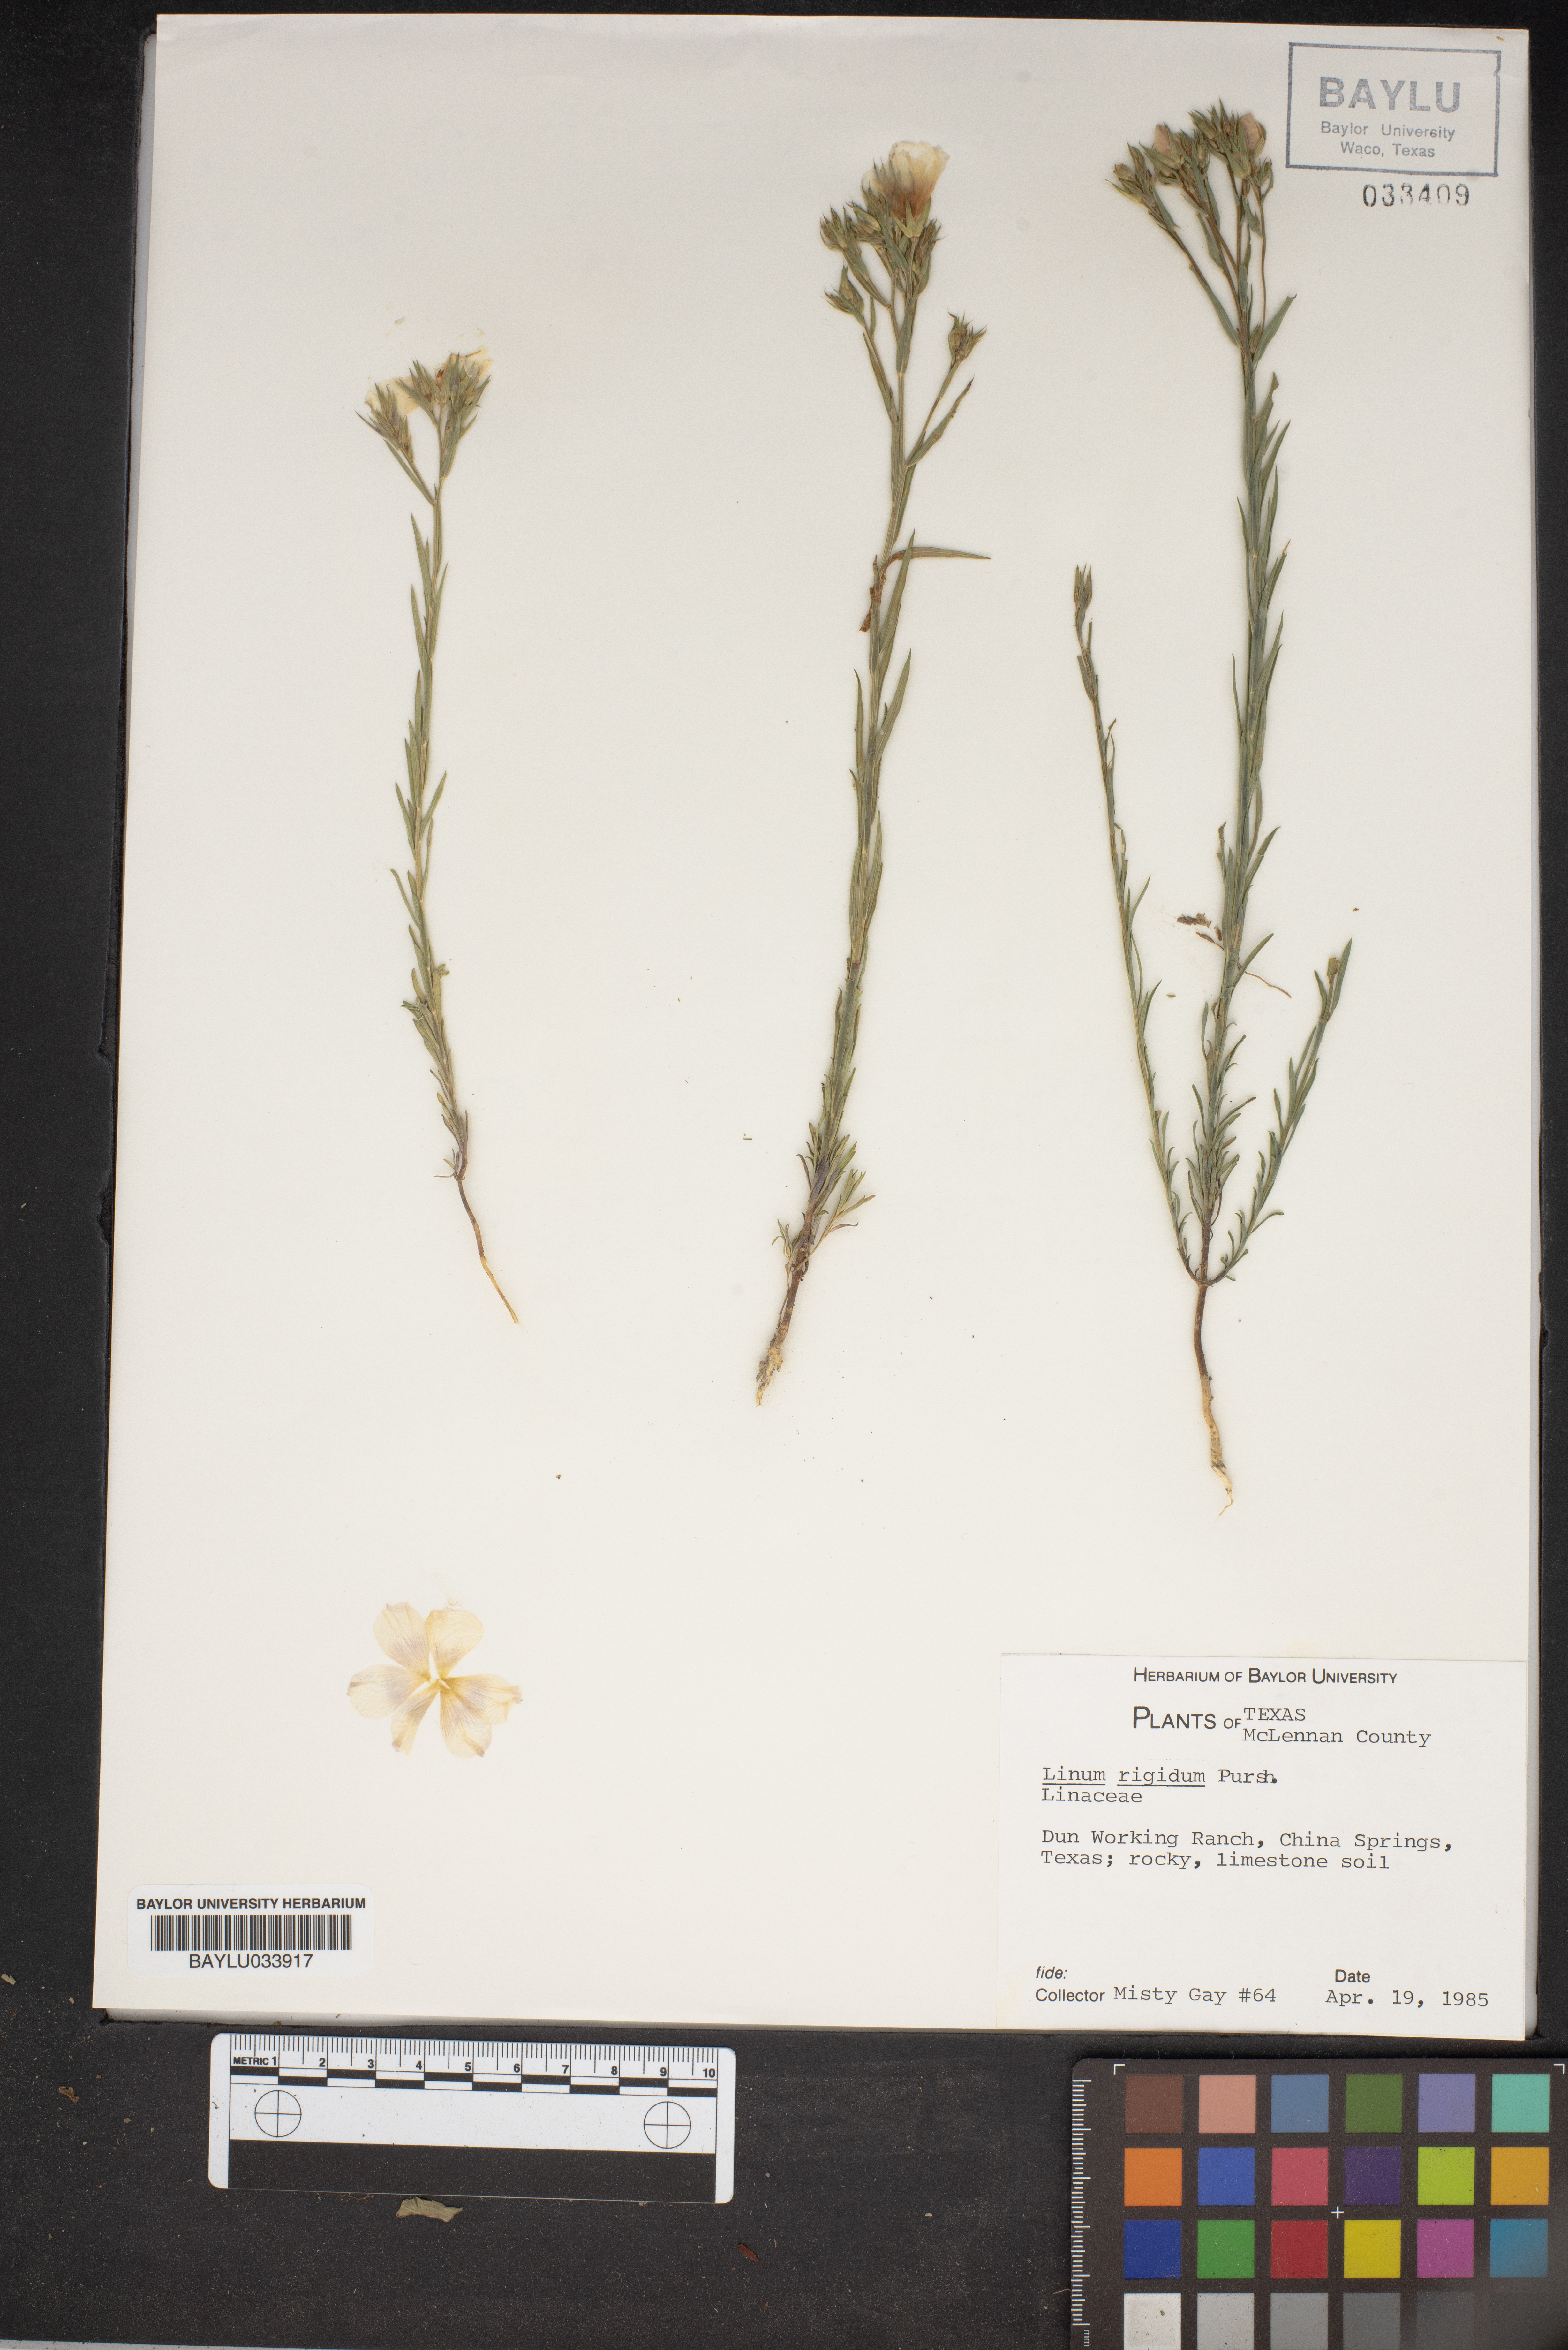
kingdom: Plantae
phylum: Tracheophyta
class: Magnoliopsida
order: Malpighiales
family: Linaceae
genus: Linum
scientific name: Linum rigidum
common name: Stiff-stem flax
